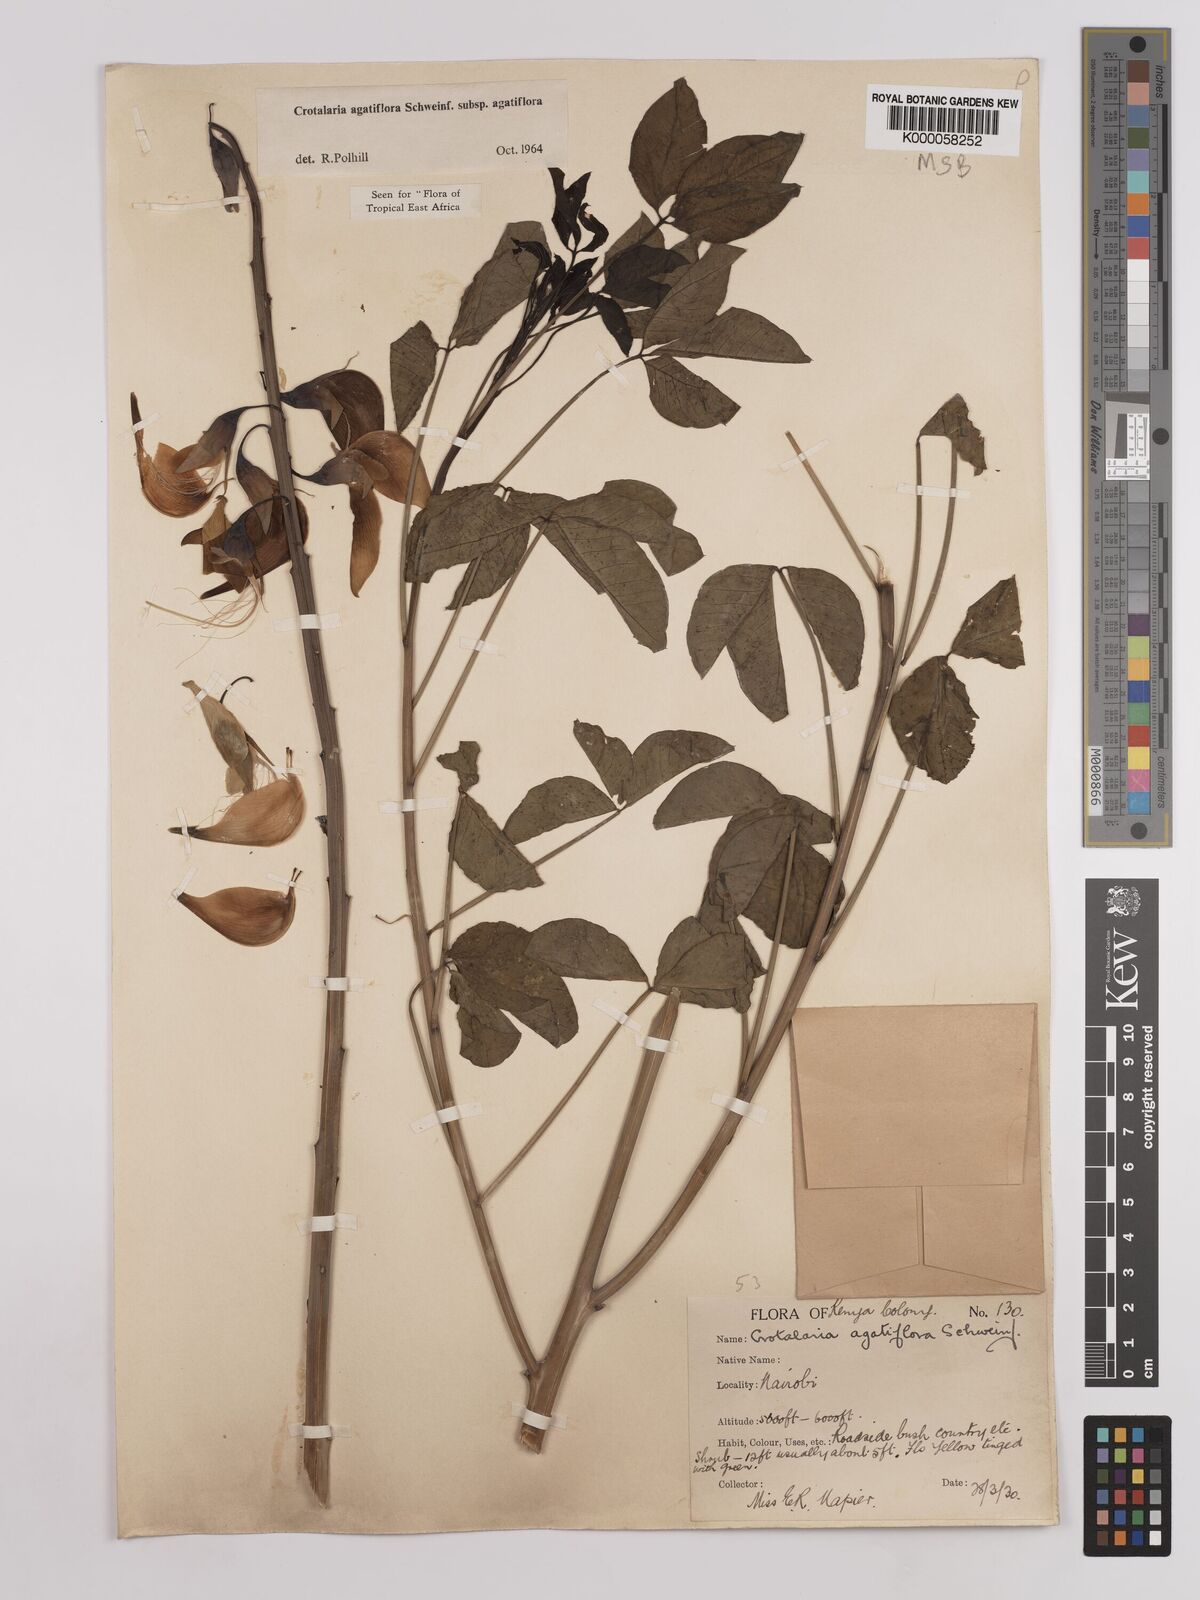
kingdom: Plantae
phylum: Tracheophyta
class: Magnoliopsida
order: Fabales
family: Fabaceae
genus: Crotalaria
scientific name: Crotalaria agatiflora
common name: Birdflower
